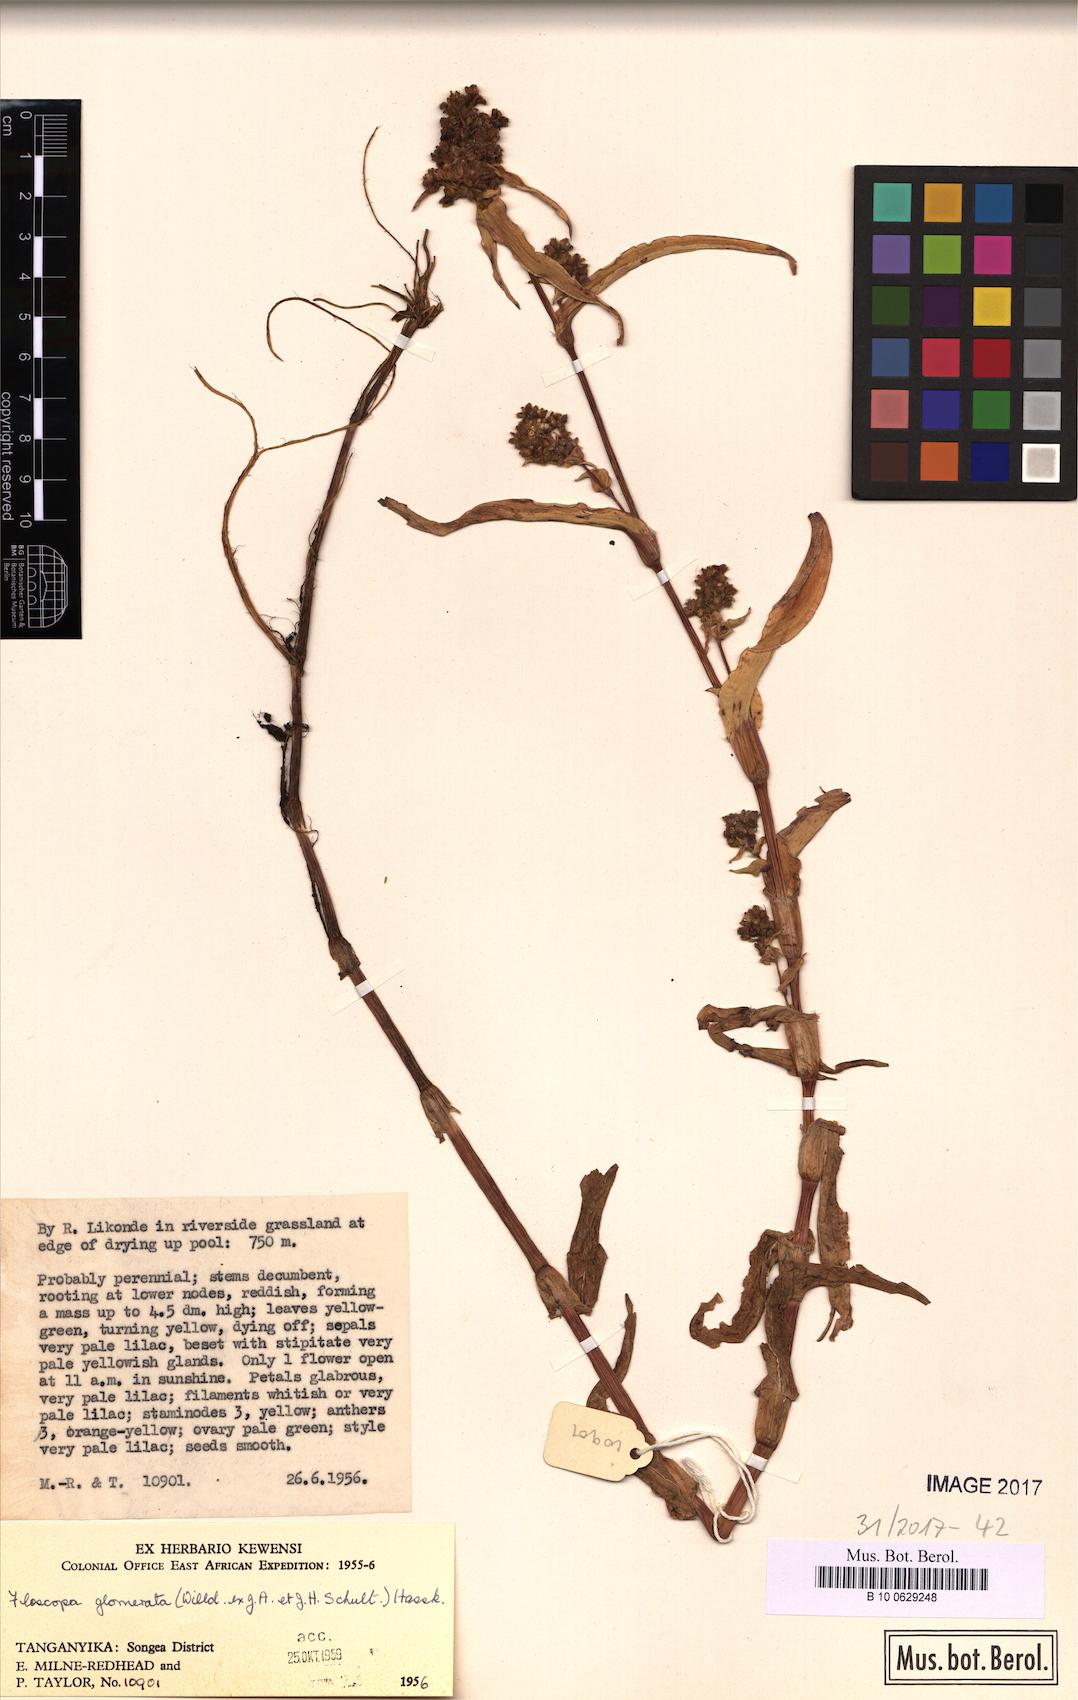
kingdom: Plantae
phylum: Tracheophyta
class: Liliopsida
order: Commelinales
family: Commelinaceae
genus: Floscopa
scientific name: Floscopa glomerata
